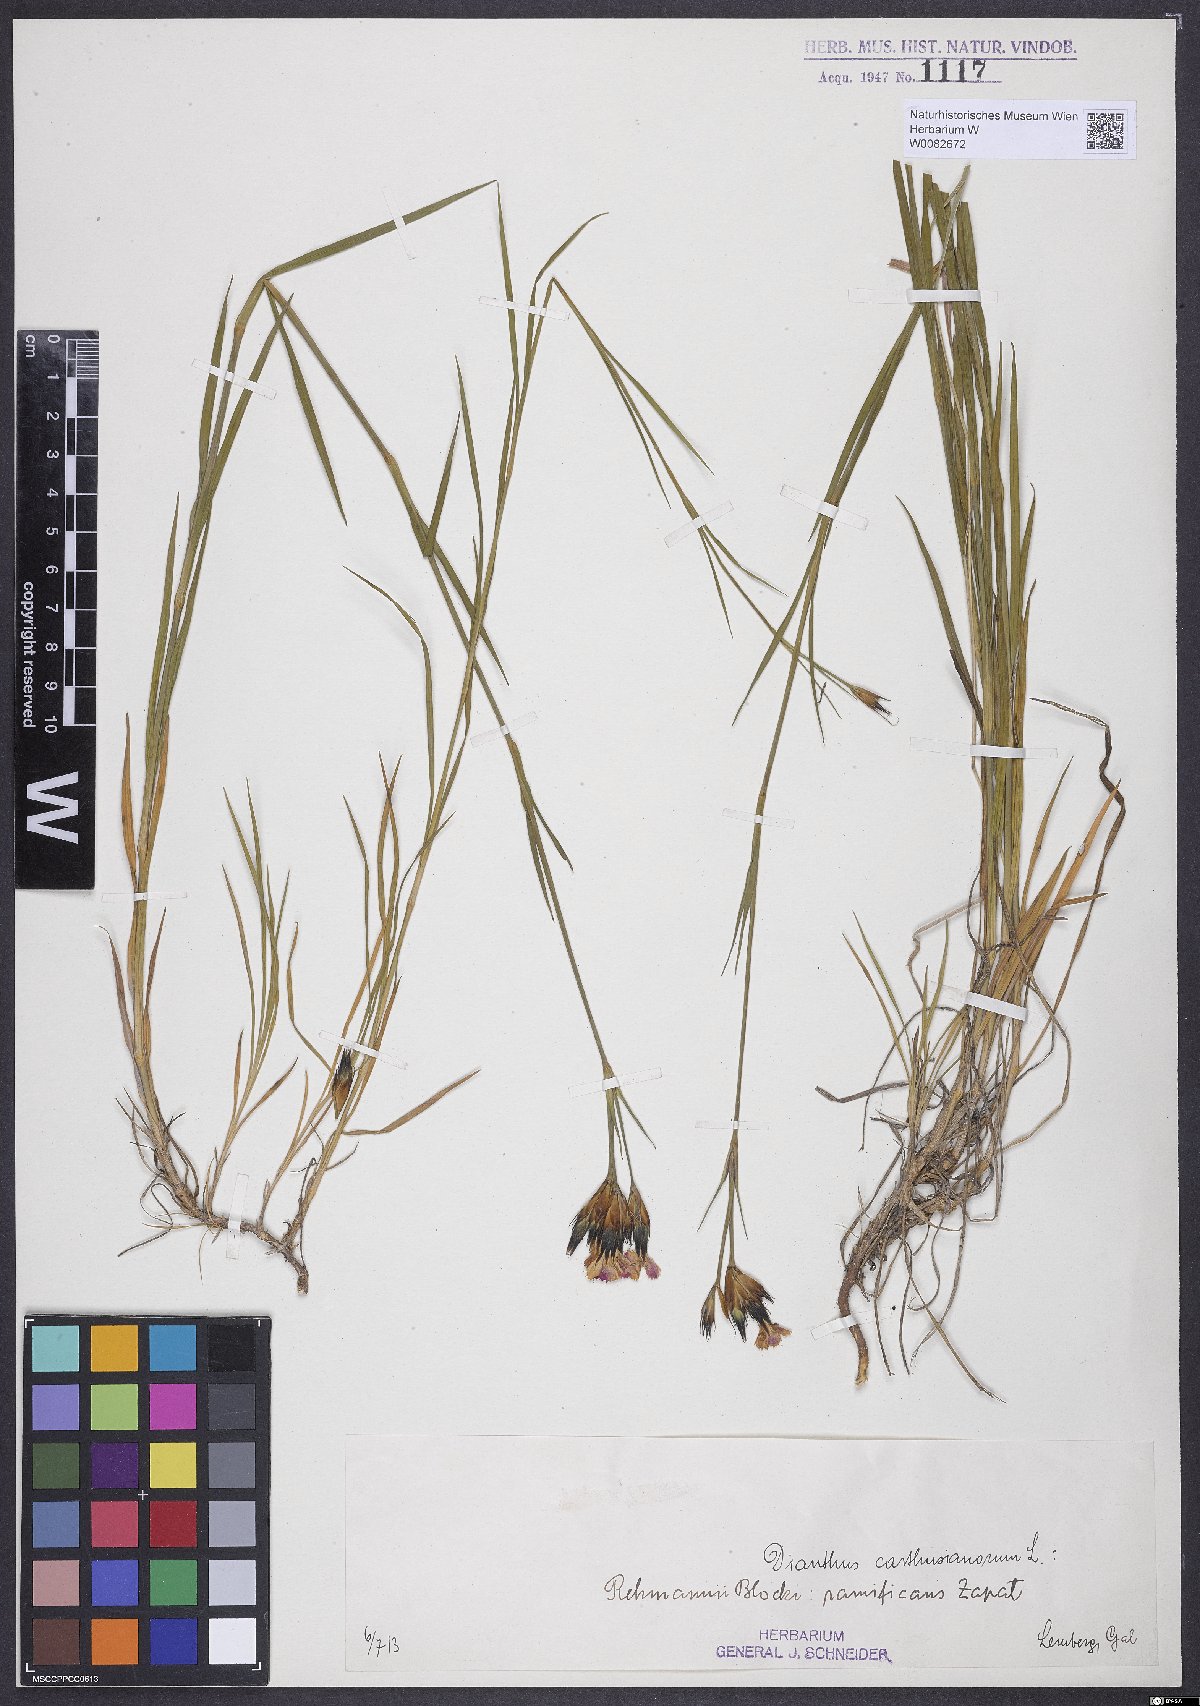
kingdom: Plantae
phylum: Tracheophyta
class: Magnoliopsida
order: Caryophyllales
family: Caryophyllaceae
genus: Dianthus
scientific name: Dianthus carthusianorum
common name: Carthusian pink
